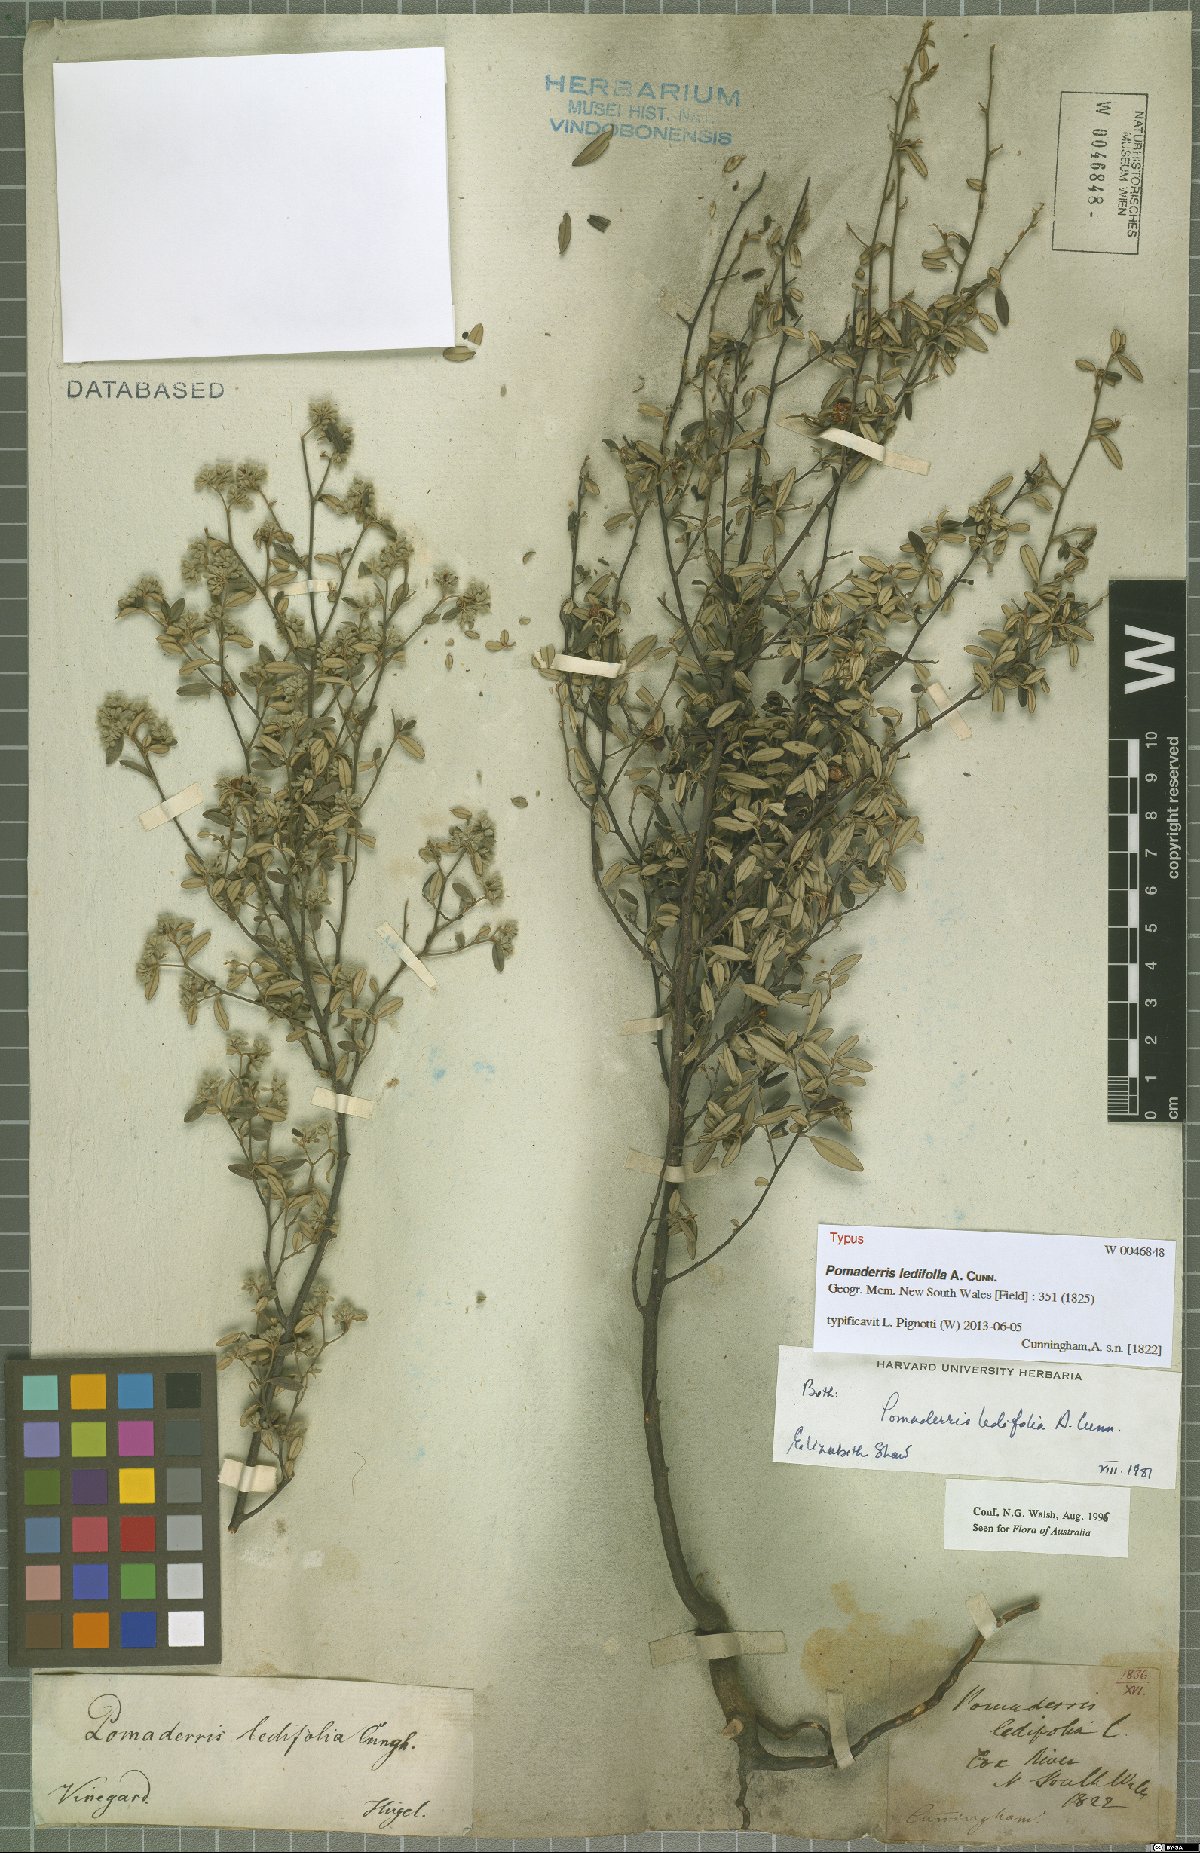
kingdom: Plantae
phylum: Tracheophyta
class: Magnoliopsida
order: Rosales
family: Rhamnaceae
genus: Pomaderris
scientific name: Pomaderris ledifolia
